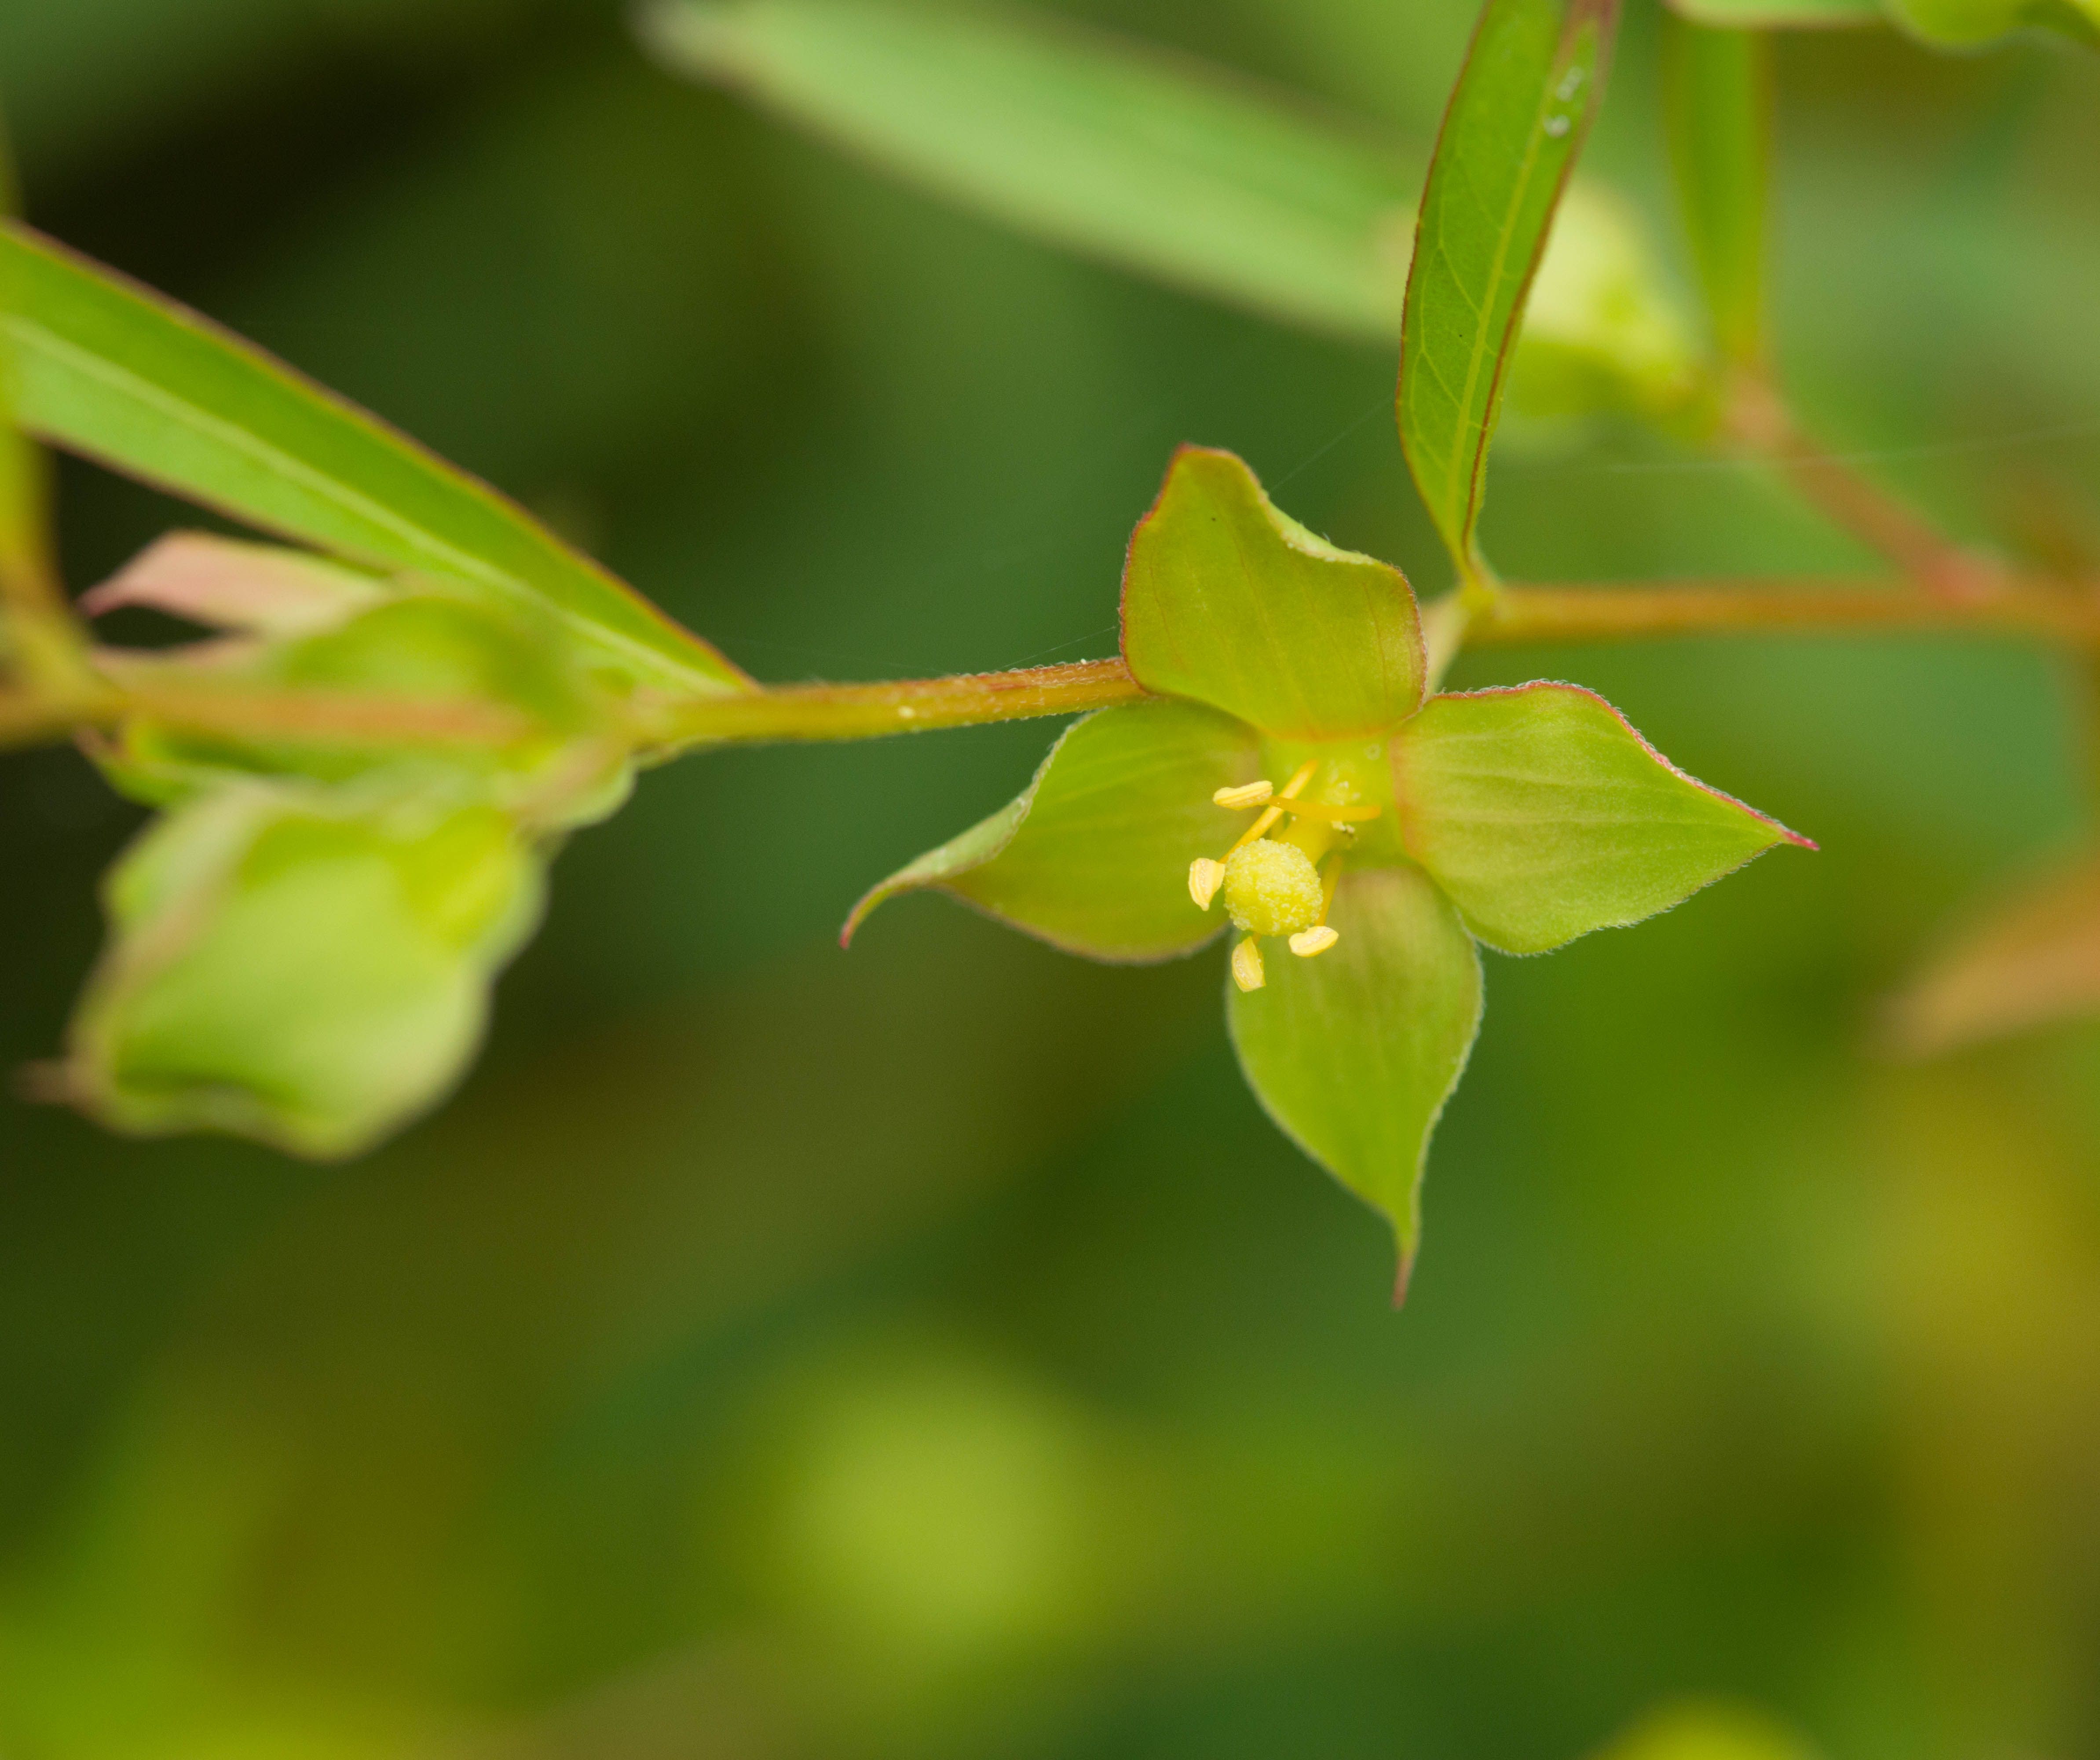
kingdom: Plantae
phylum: Tracheophyta
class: Magnoliopsida
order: Myrtales
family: Onagraceae
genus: Ludwigia
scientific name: Ludwigia alternifolia
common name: Rattlebox
